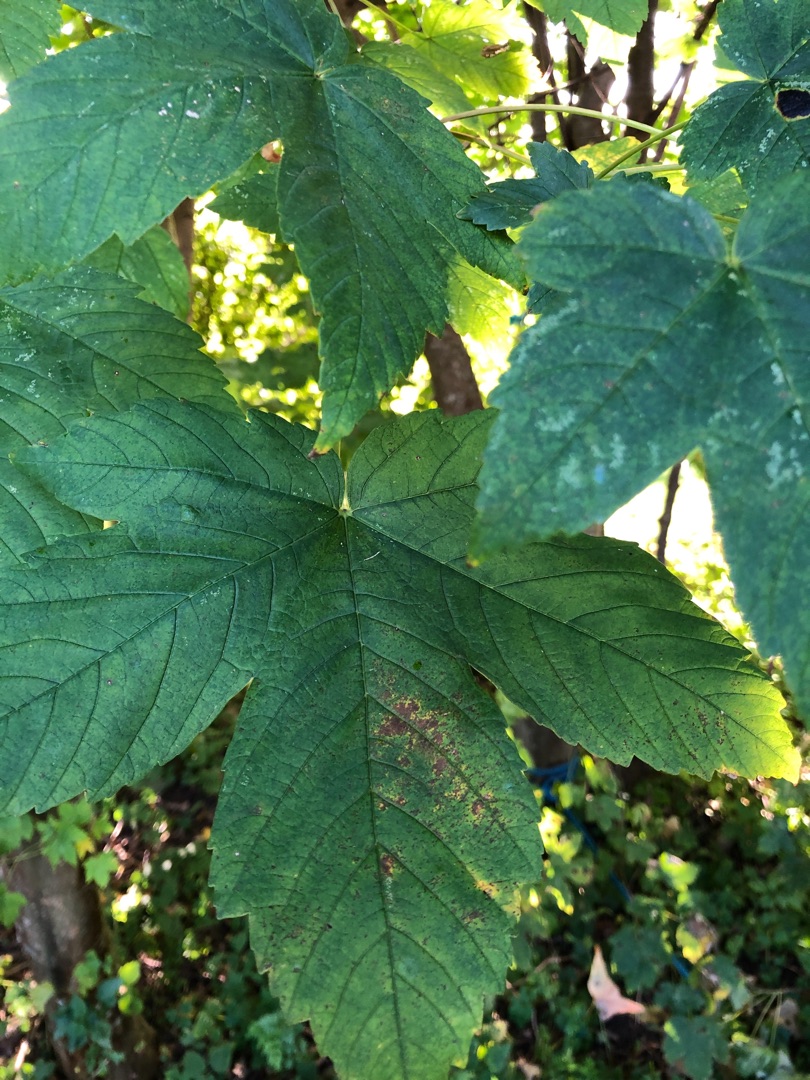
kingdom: Plantae
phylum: Tracheophyta
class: Magnoliopsida
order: Sapindales
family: Sapindaceae
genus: Acer
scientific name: Acer pseudoplatanus
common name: Ahorn
